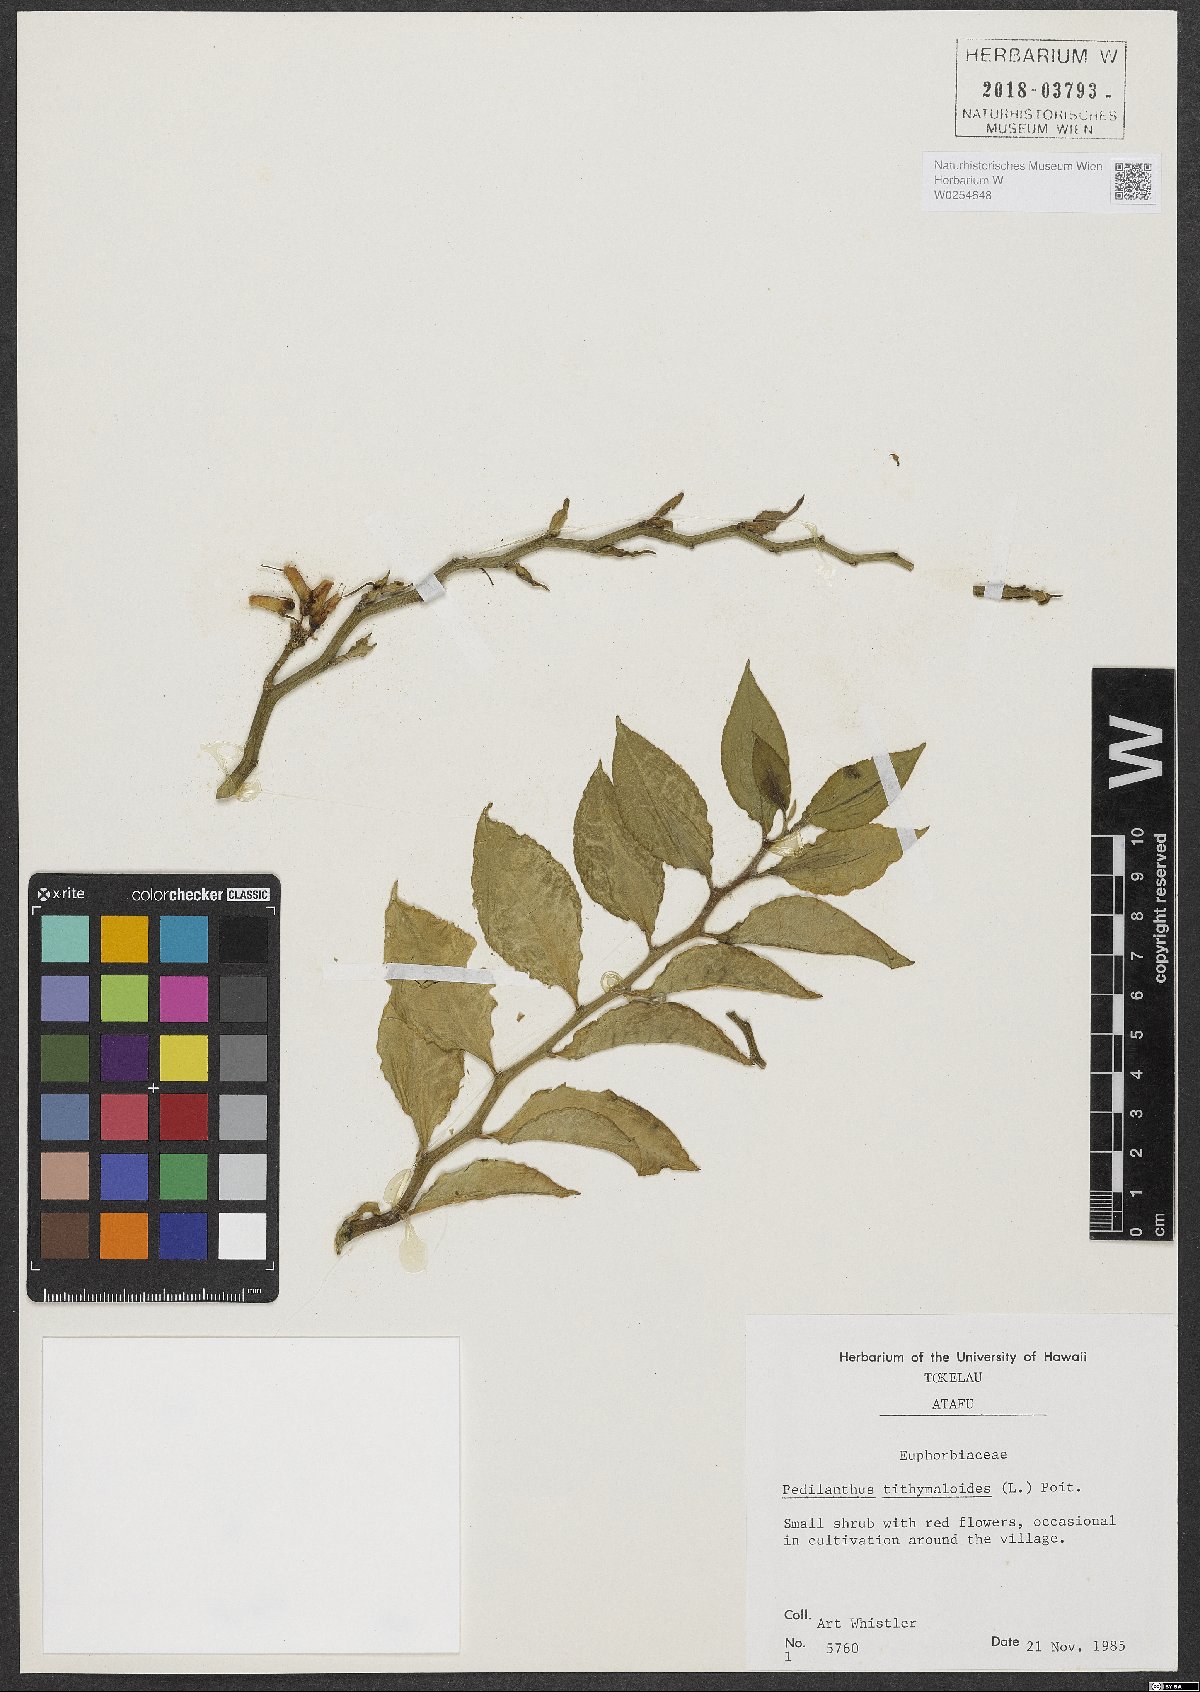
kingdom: Plantae
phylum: Tracheophyta
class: Magnoliopsida
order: Malpighiales
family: Euphorbiaceae
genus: Euphorbia
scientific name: Euphorbia tithymaloides
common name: Slipperplant
